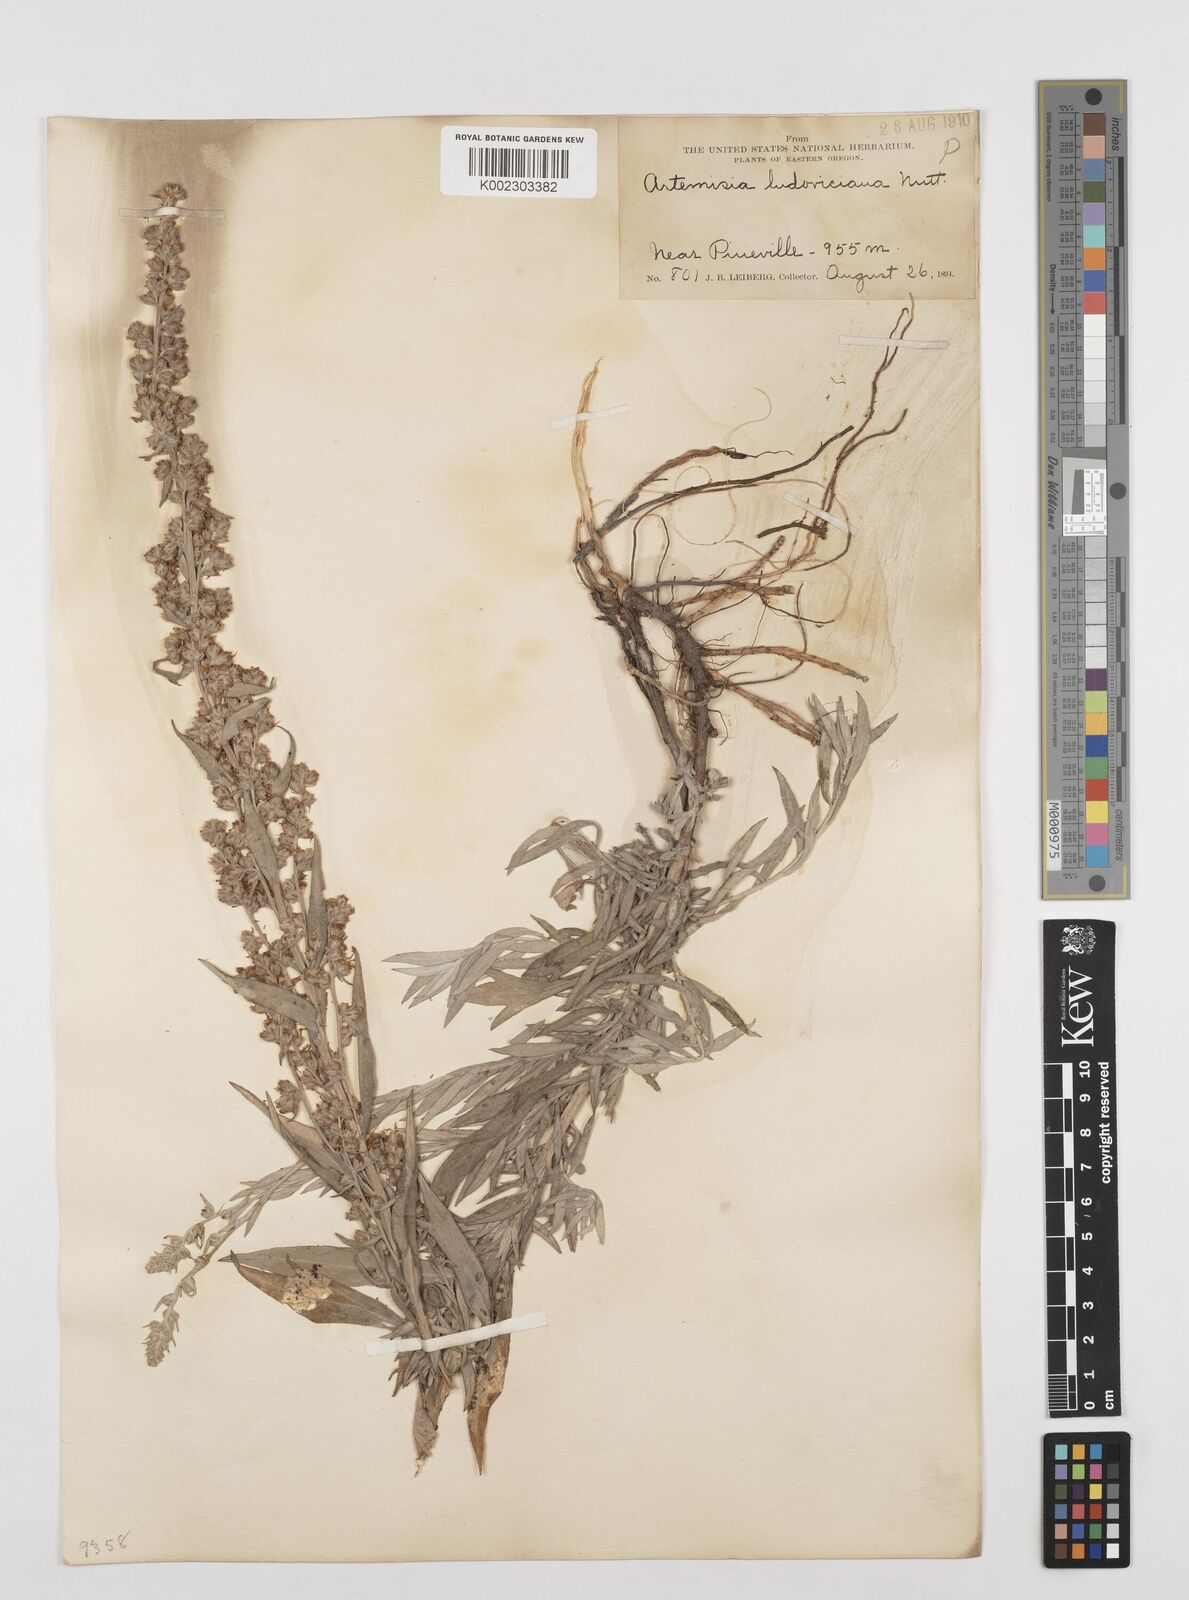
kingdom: Plantae
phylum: Tracheophyta
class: Magnoliopsida
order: Asterales
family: Asteraceae
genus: Artemisia
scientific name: Artemisia
